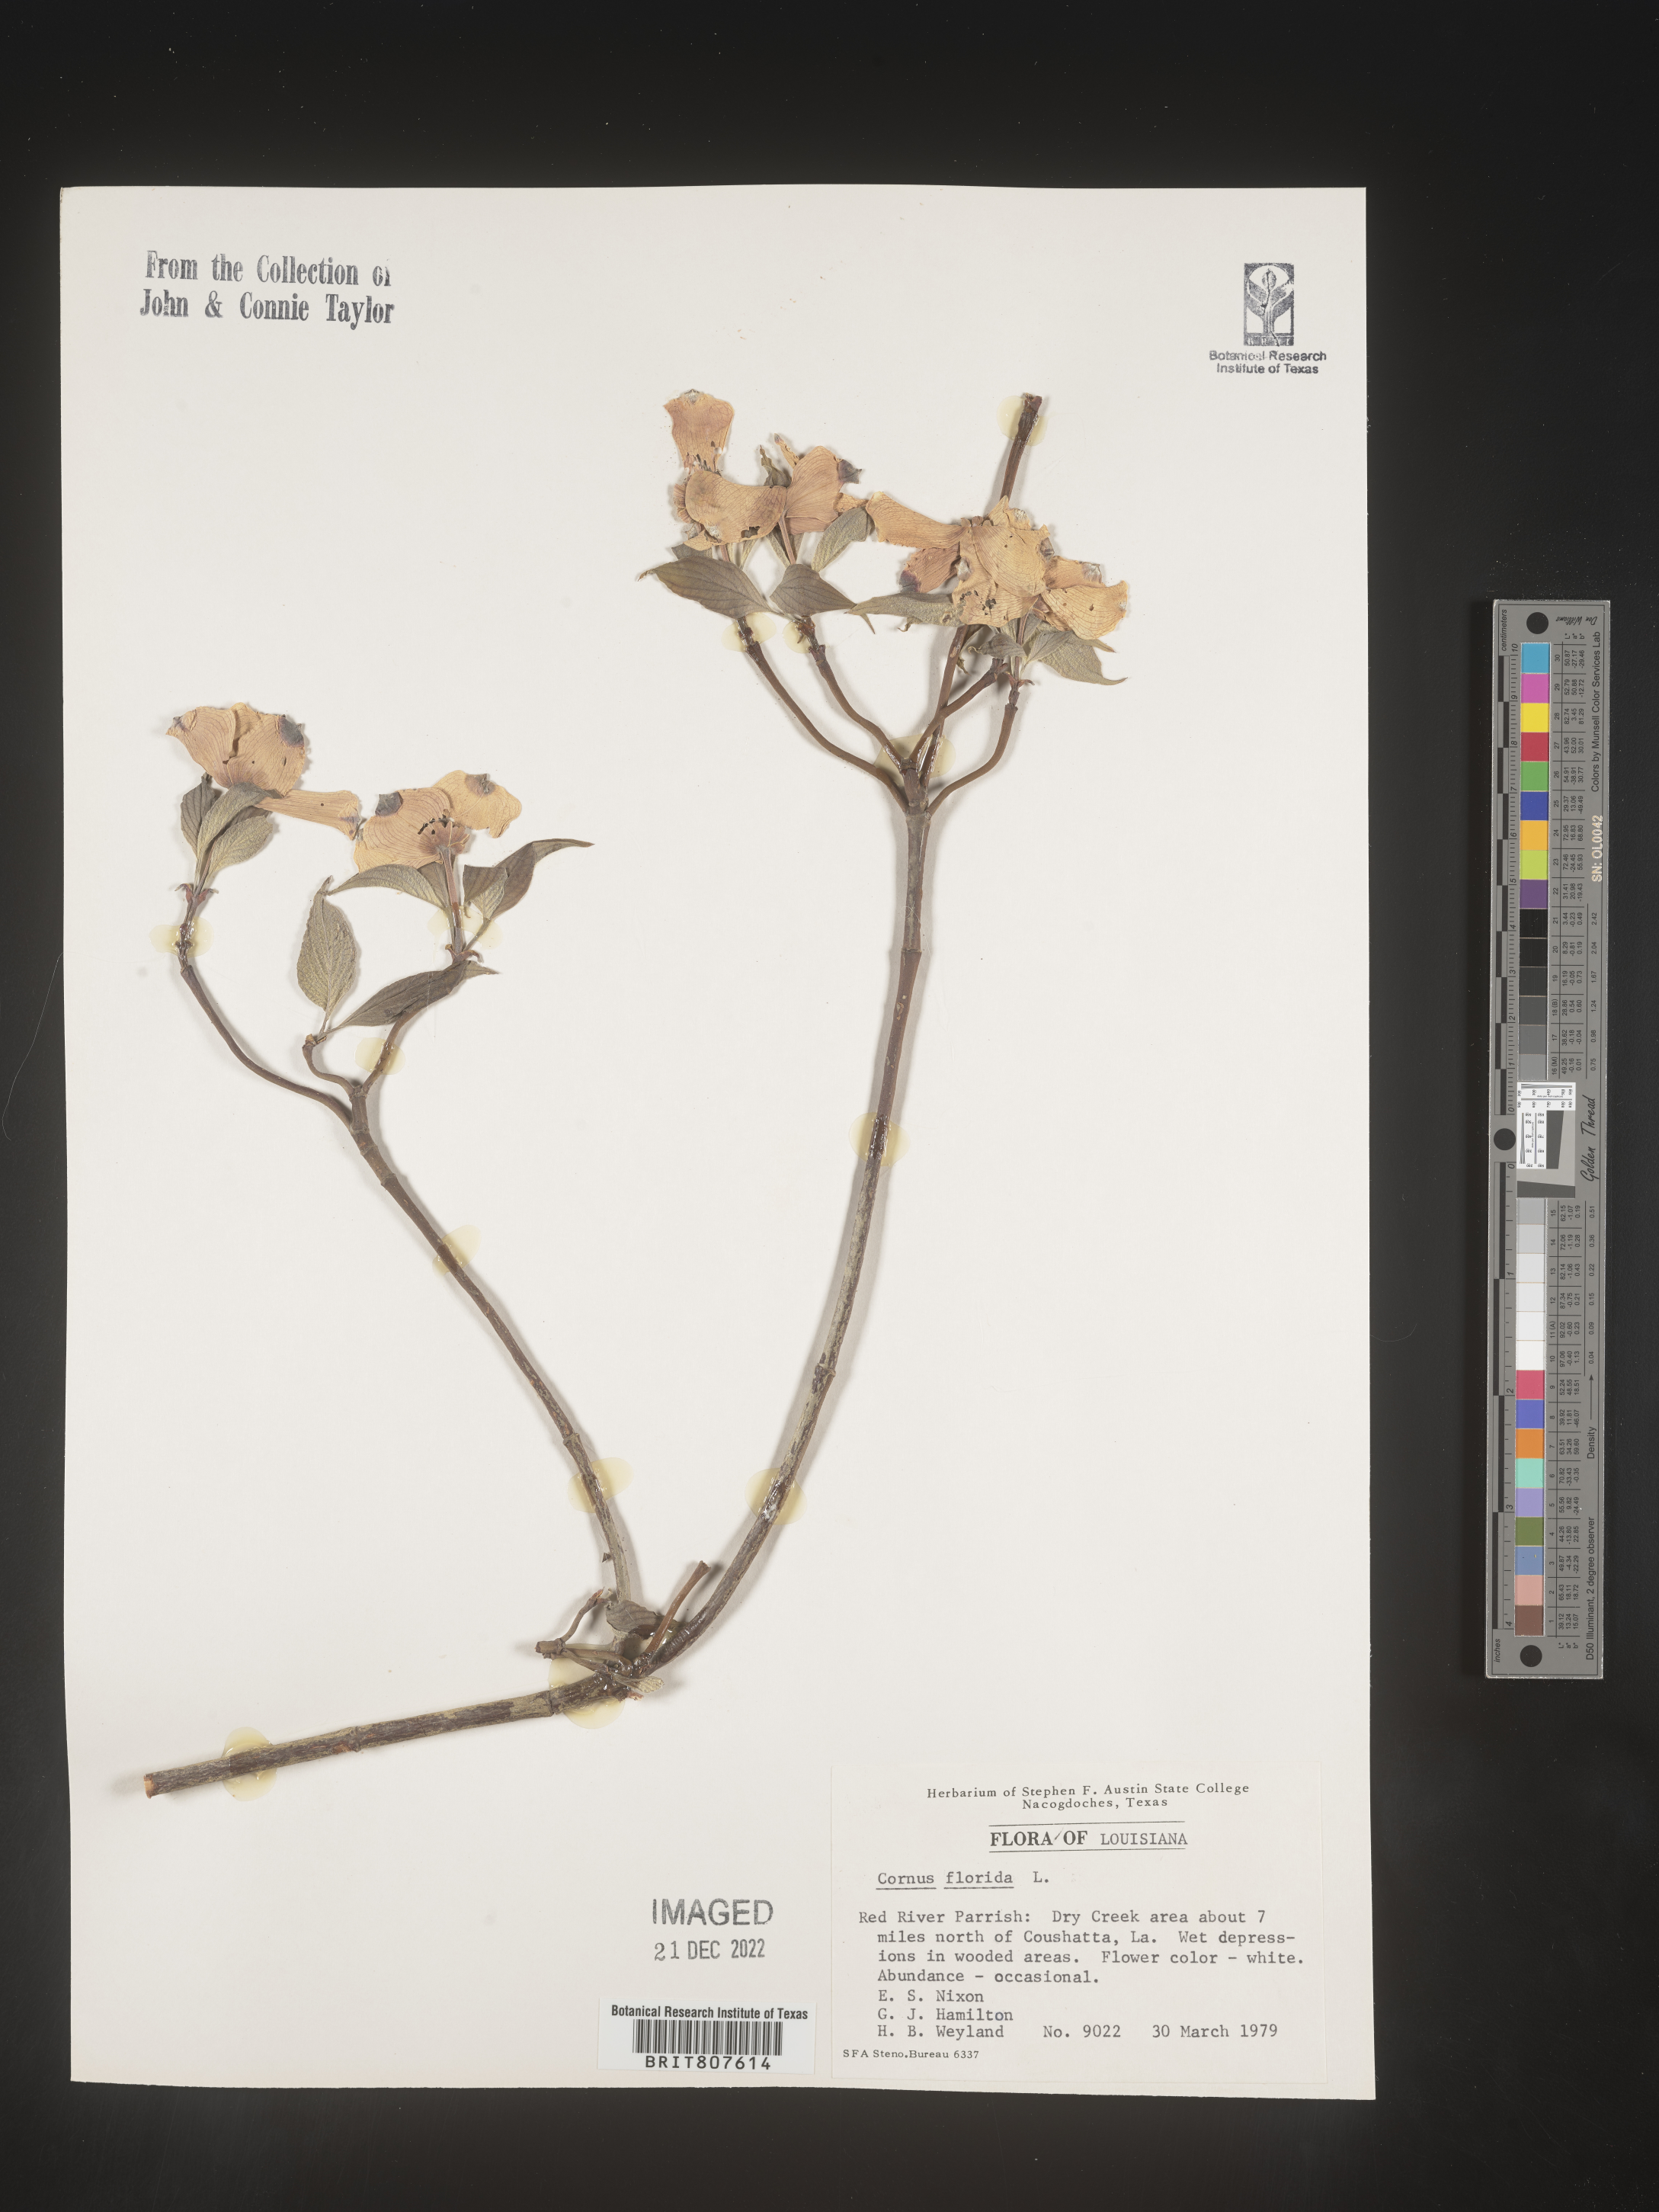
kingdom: Plantae
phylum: Tracheophyta
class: Magnoliopsida
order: Cornales
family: Cornaceae
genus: Cornus
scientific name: Cornus florida
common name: Flowering dogwood
